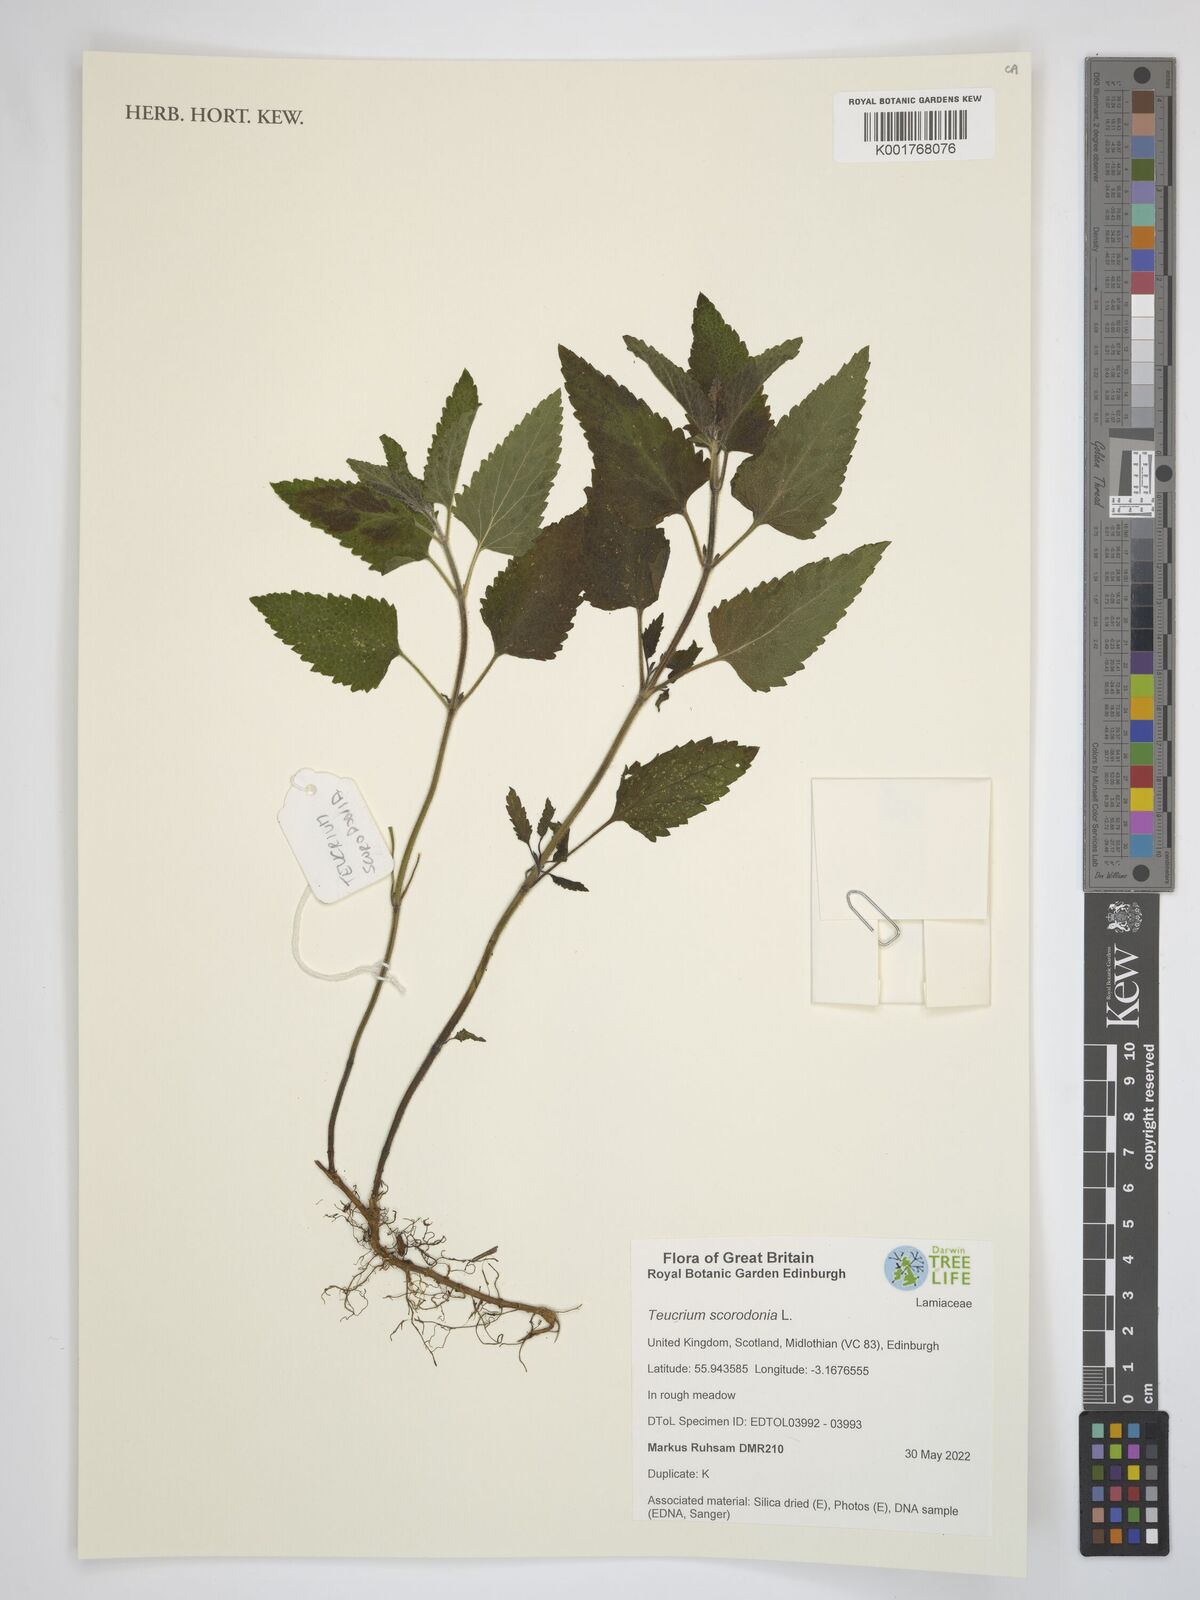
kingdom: Plantae
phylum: Tracheophyta
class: Magnoliopsida
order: Lamiales
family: Lamiaceae
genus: Teucrium
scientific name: Teucrium scorodonia
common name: Woodland germander
